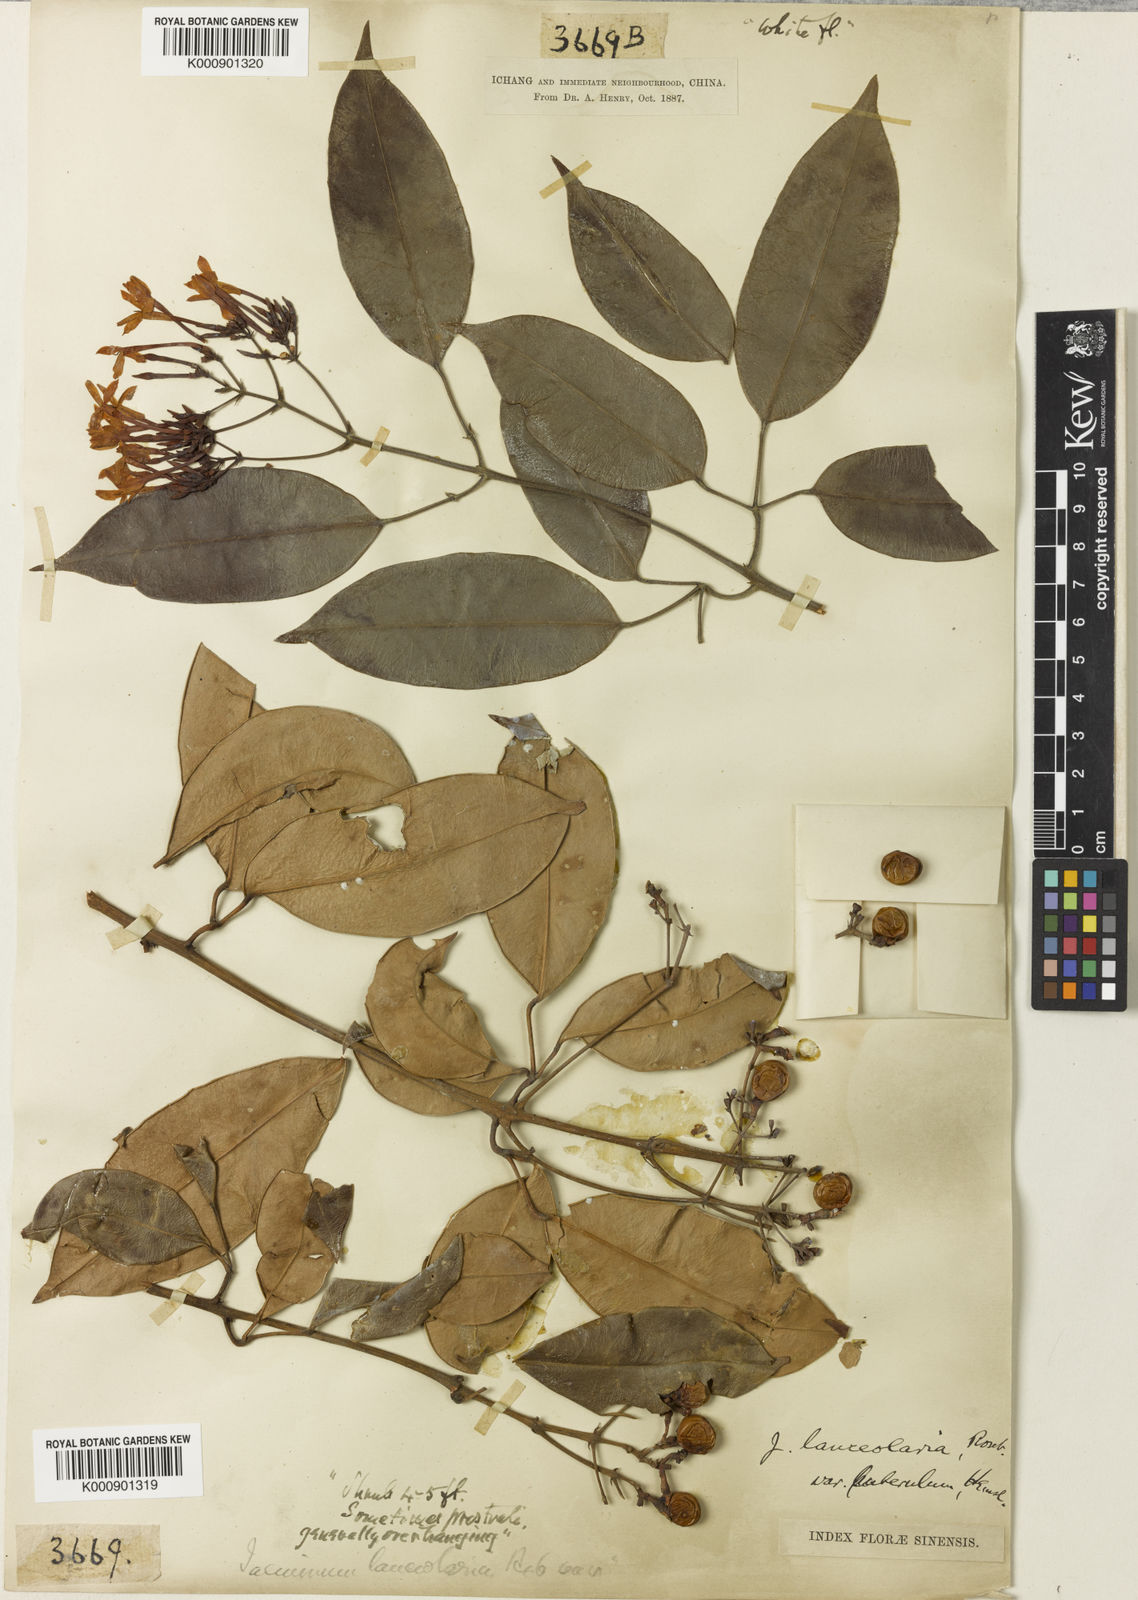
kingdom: Plantae
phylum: Tracheophyta
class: Magnoliopsida
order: Lamiales
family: Oleaceae
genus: Jasminum
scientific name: Jasminum lanceolaria
